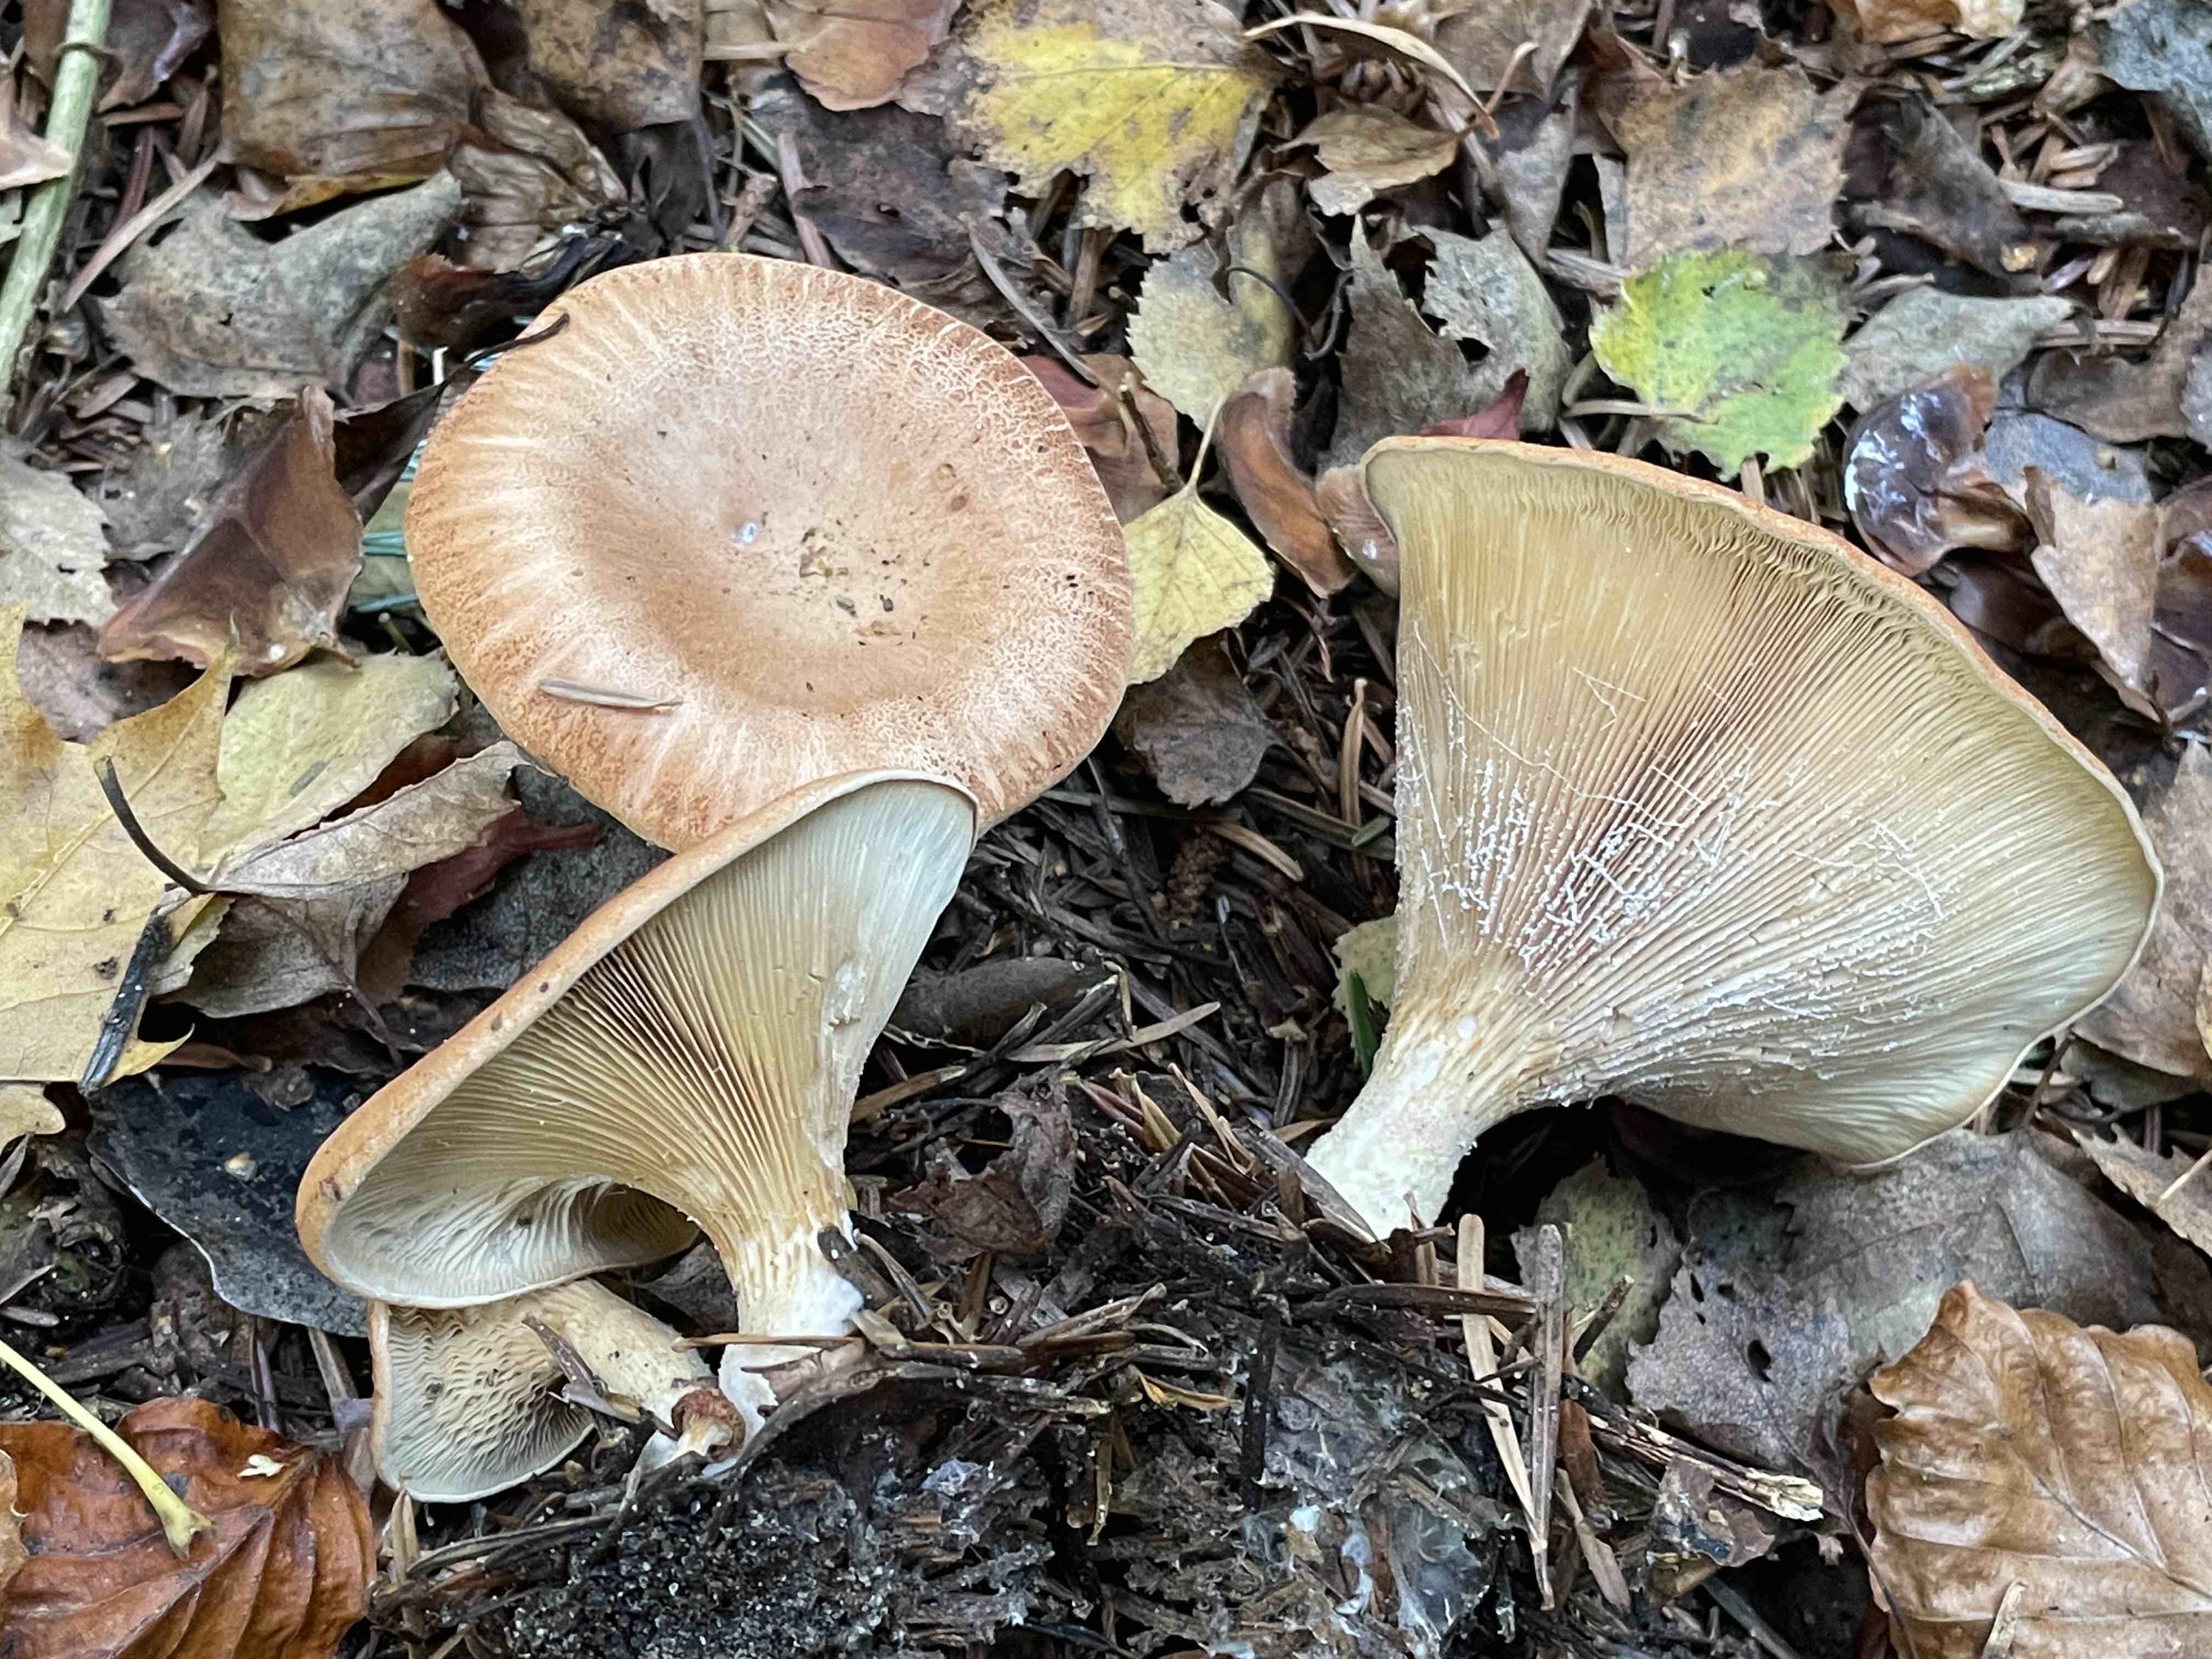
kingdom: Fungi
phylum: Basidiomycota
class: Agaricomycetes
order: Agaricales
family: Tricholomataceae
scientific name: Tricholomataceae
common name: ridderhatfamilien
